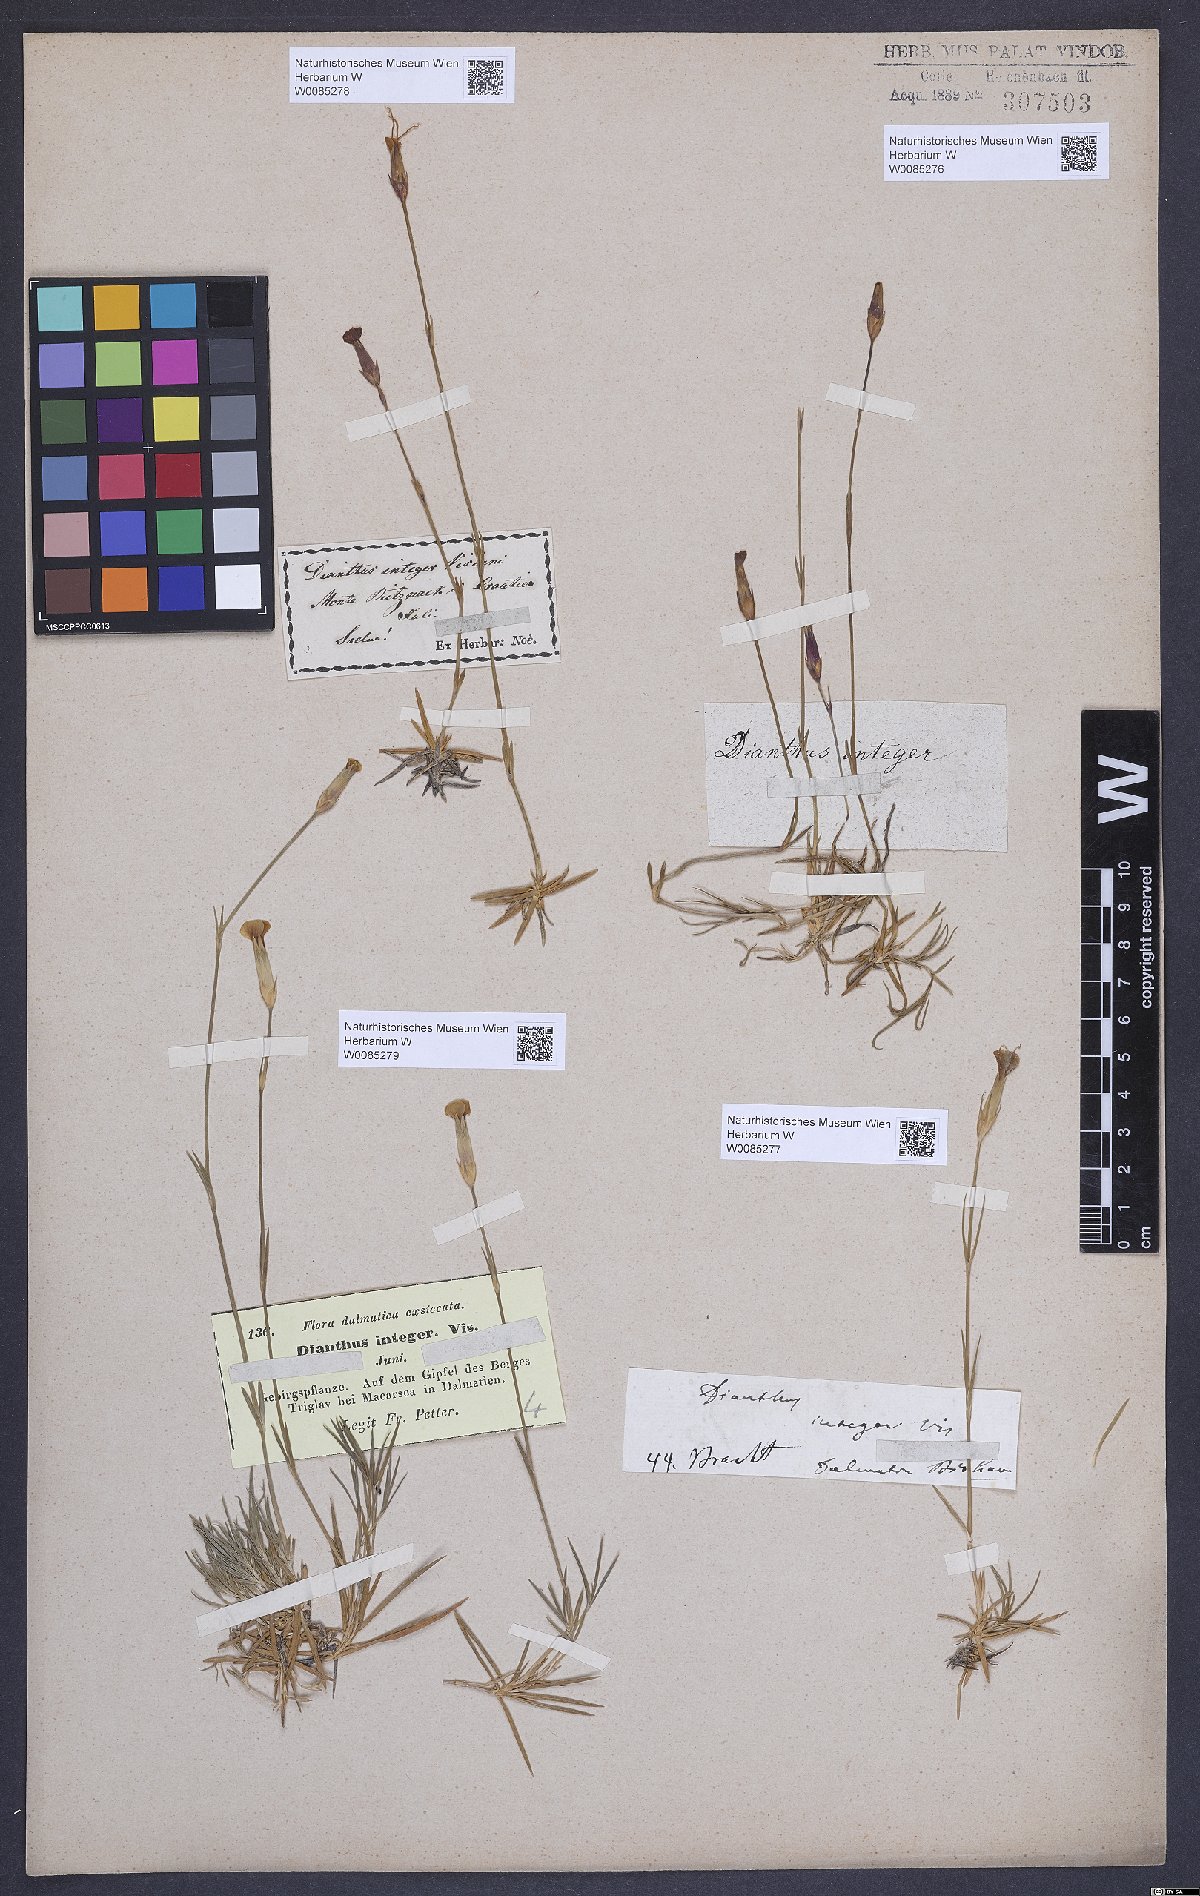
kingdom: Plantae
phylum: Tracheophyta
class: Magnoliopsida
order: Caryophyllales
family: Caryophyllaceae
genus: Dianthus
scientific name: Dianthus petraeus
